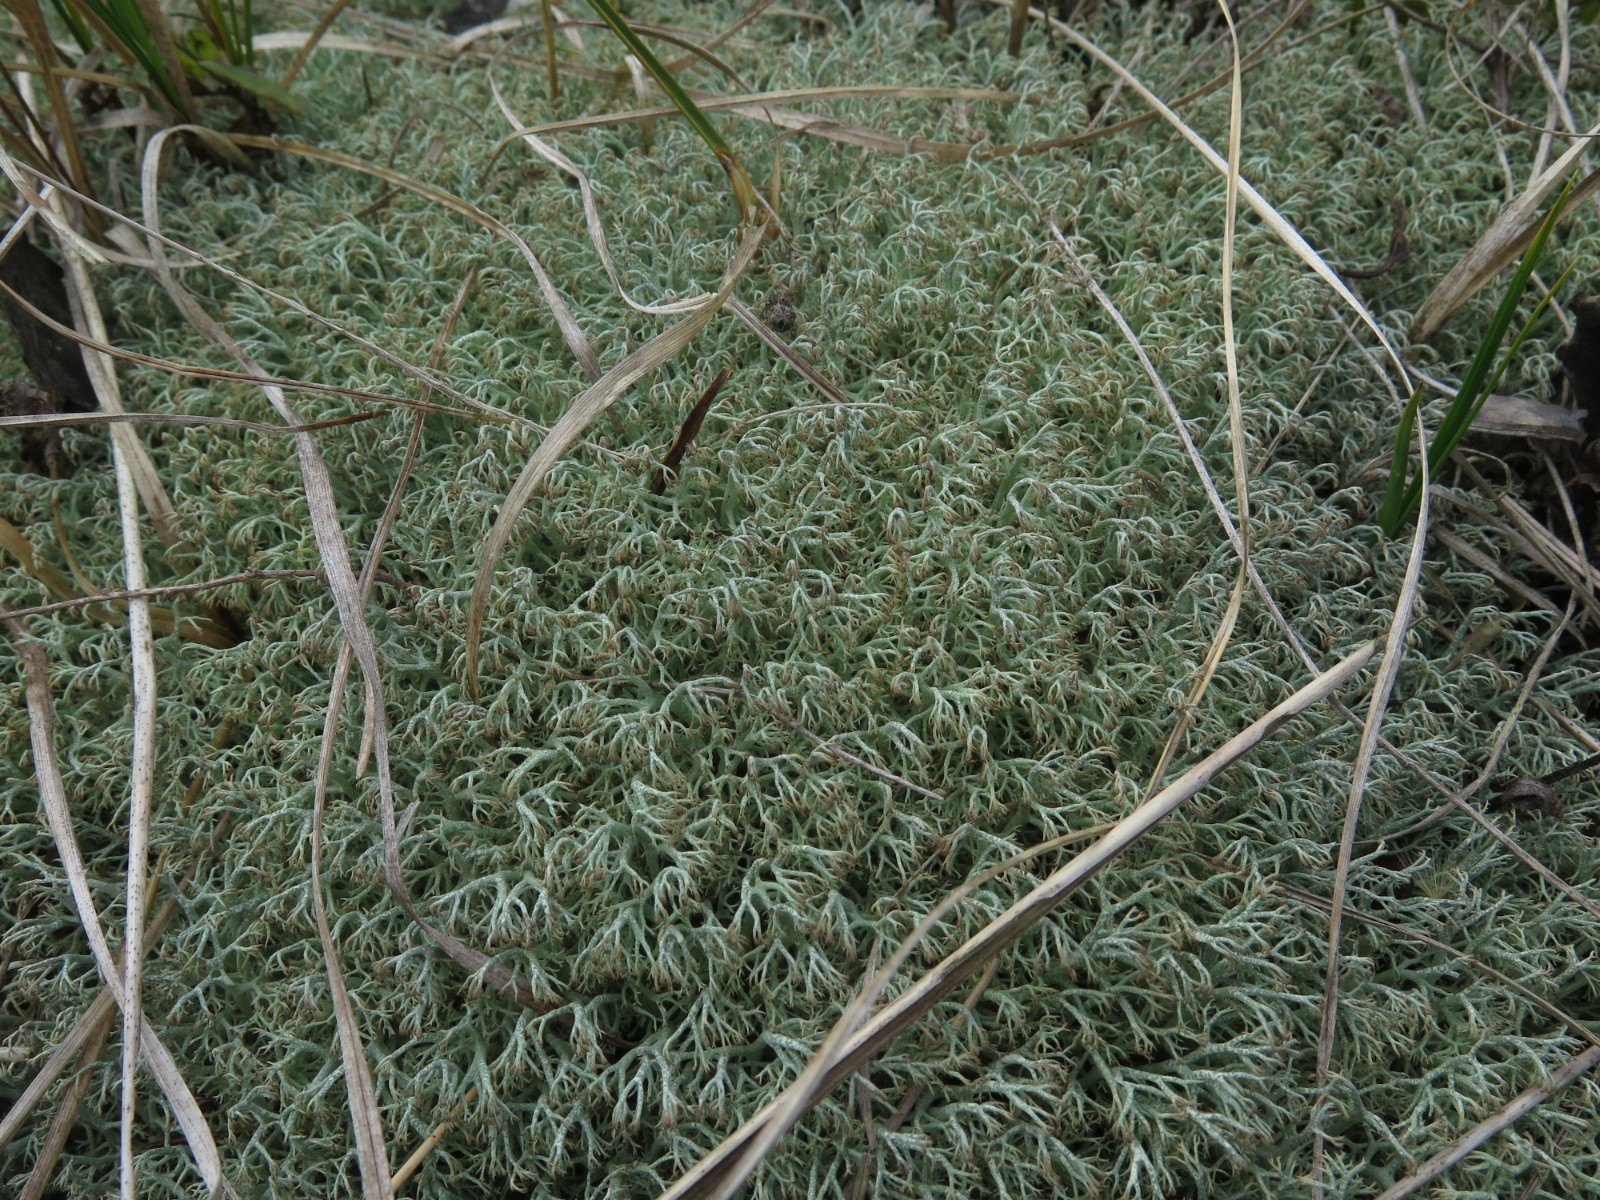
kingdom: Fungi
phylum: Ascomycota
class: Lecanoromycetes
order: Lecanorales
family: Cladoniaceae
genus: Cladonia
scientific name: Cladonia ciliata
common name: spinkel rensdyrlav
